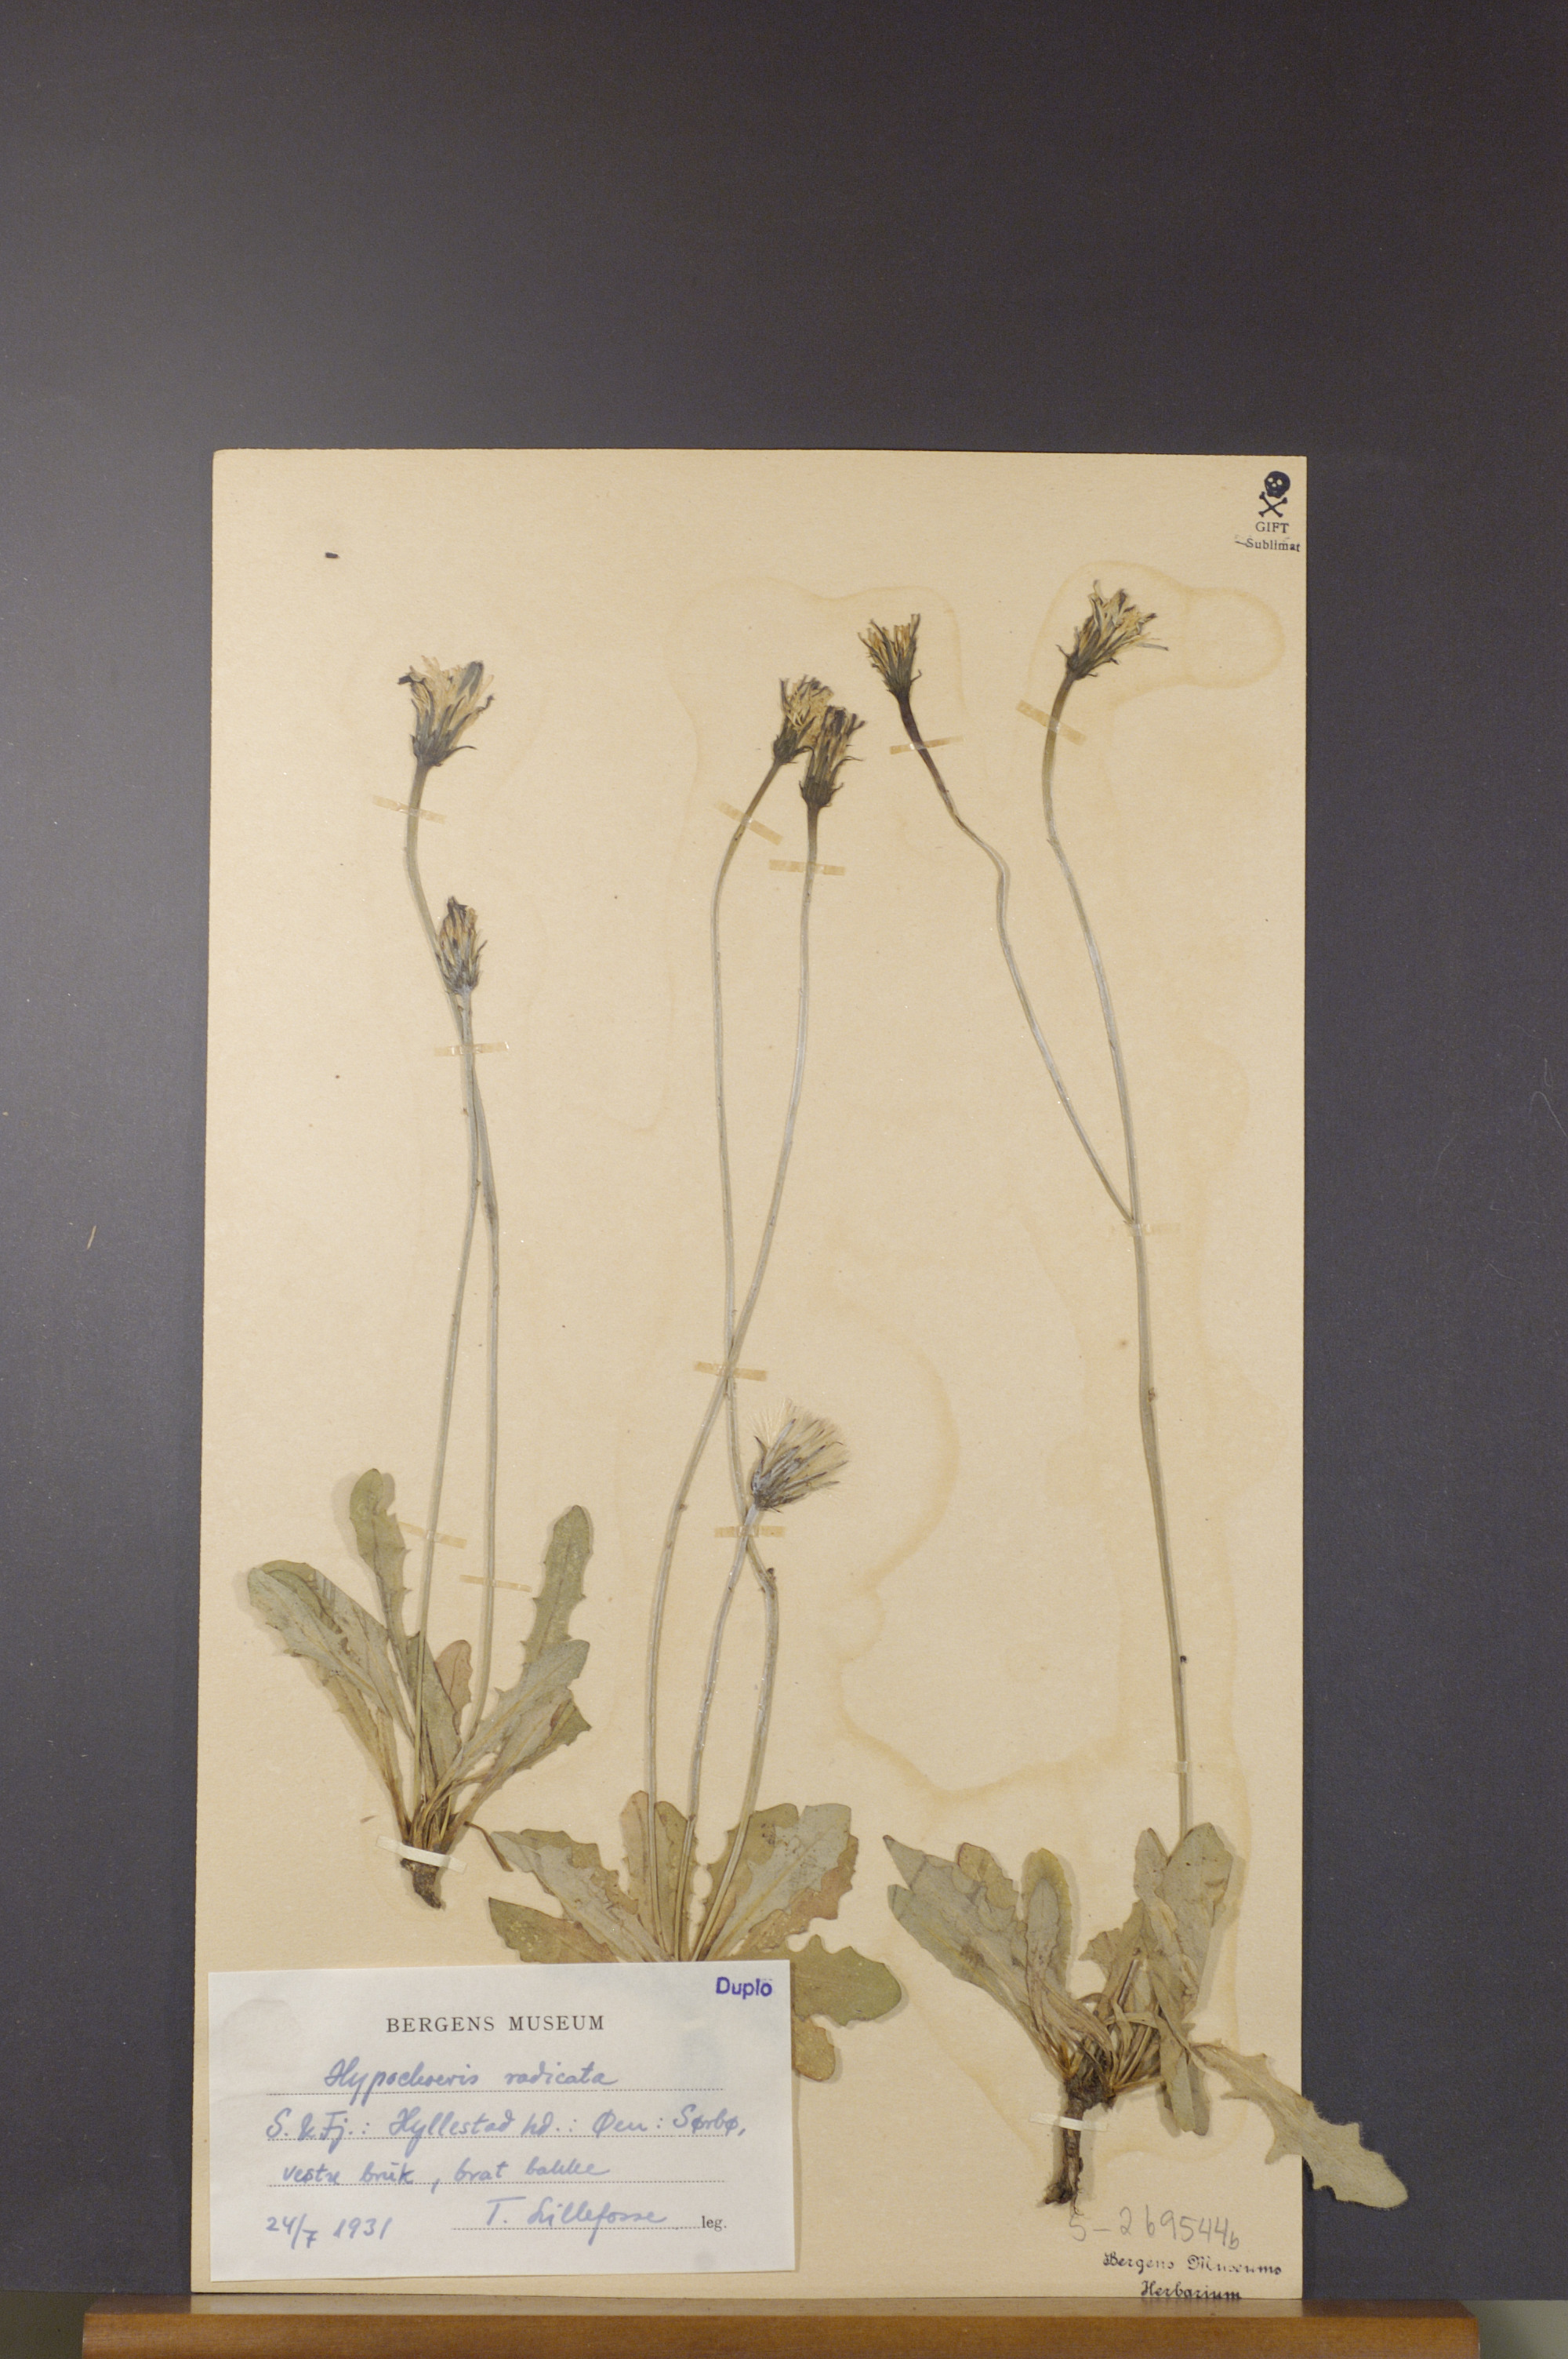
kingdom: Plantae
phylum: Tracheophyta
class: Magnoliopsida
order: Asterales
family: Asteraceae
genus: Hypochaeris
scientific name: Hypochaeris radicata
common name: Flatweed
